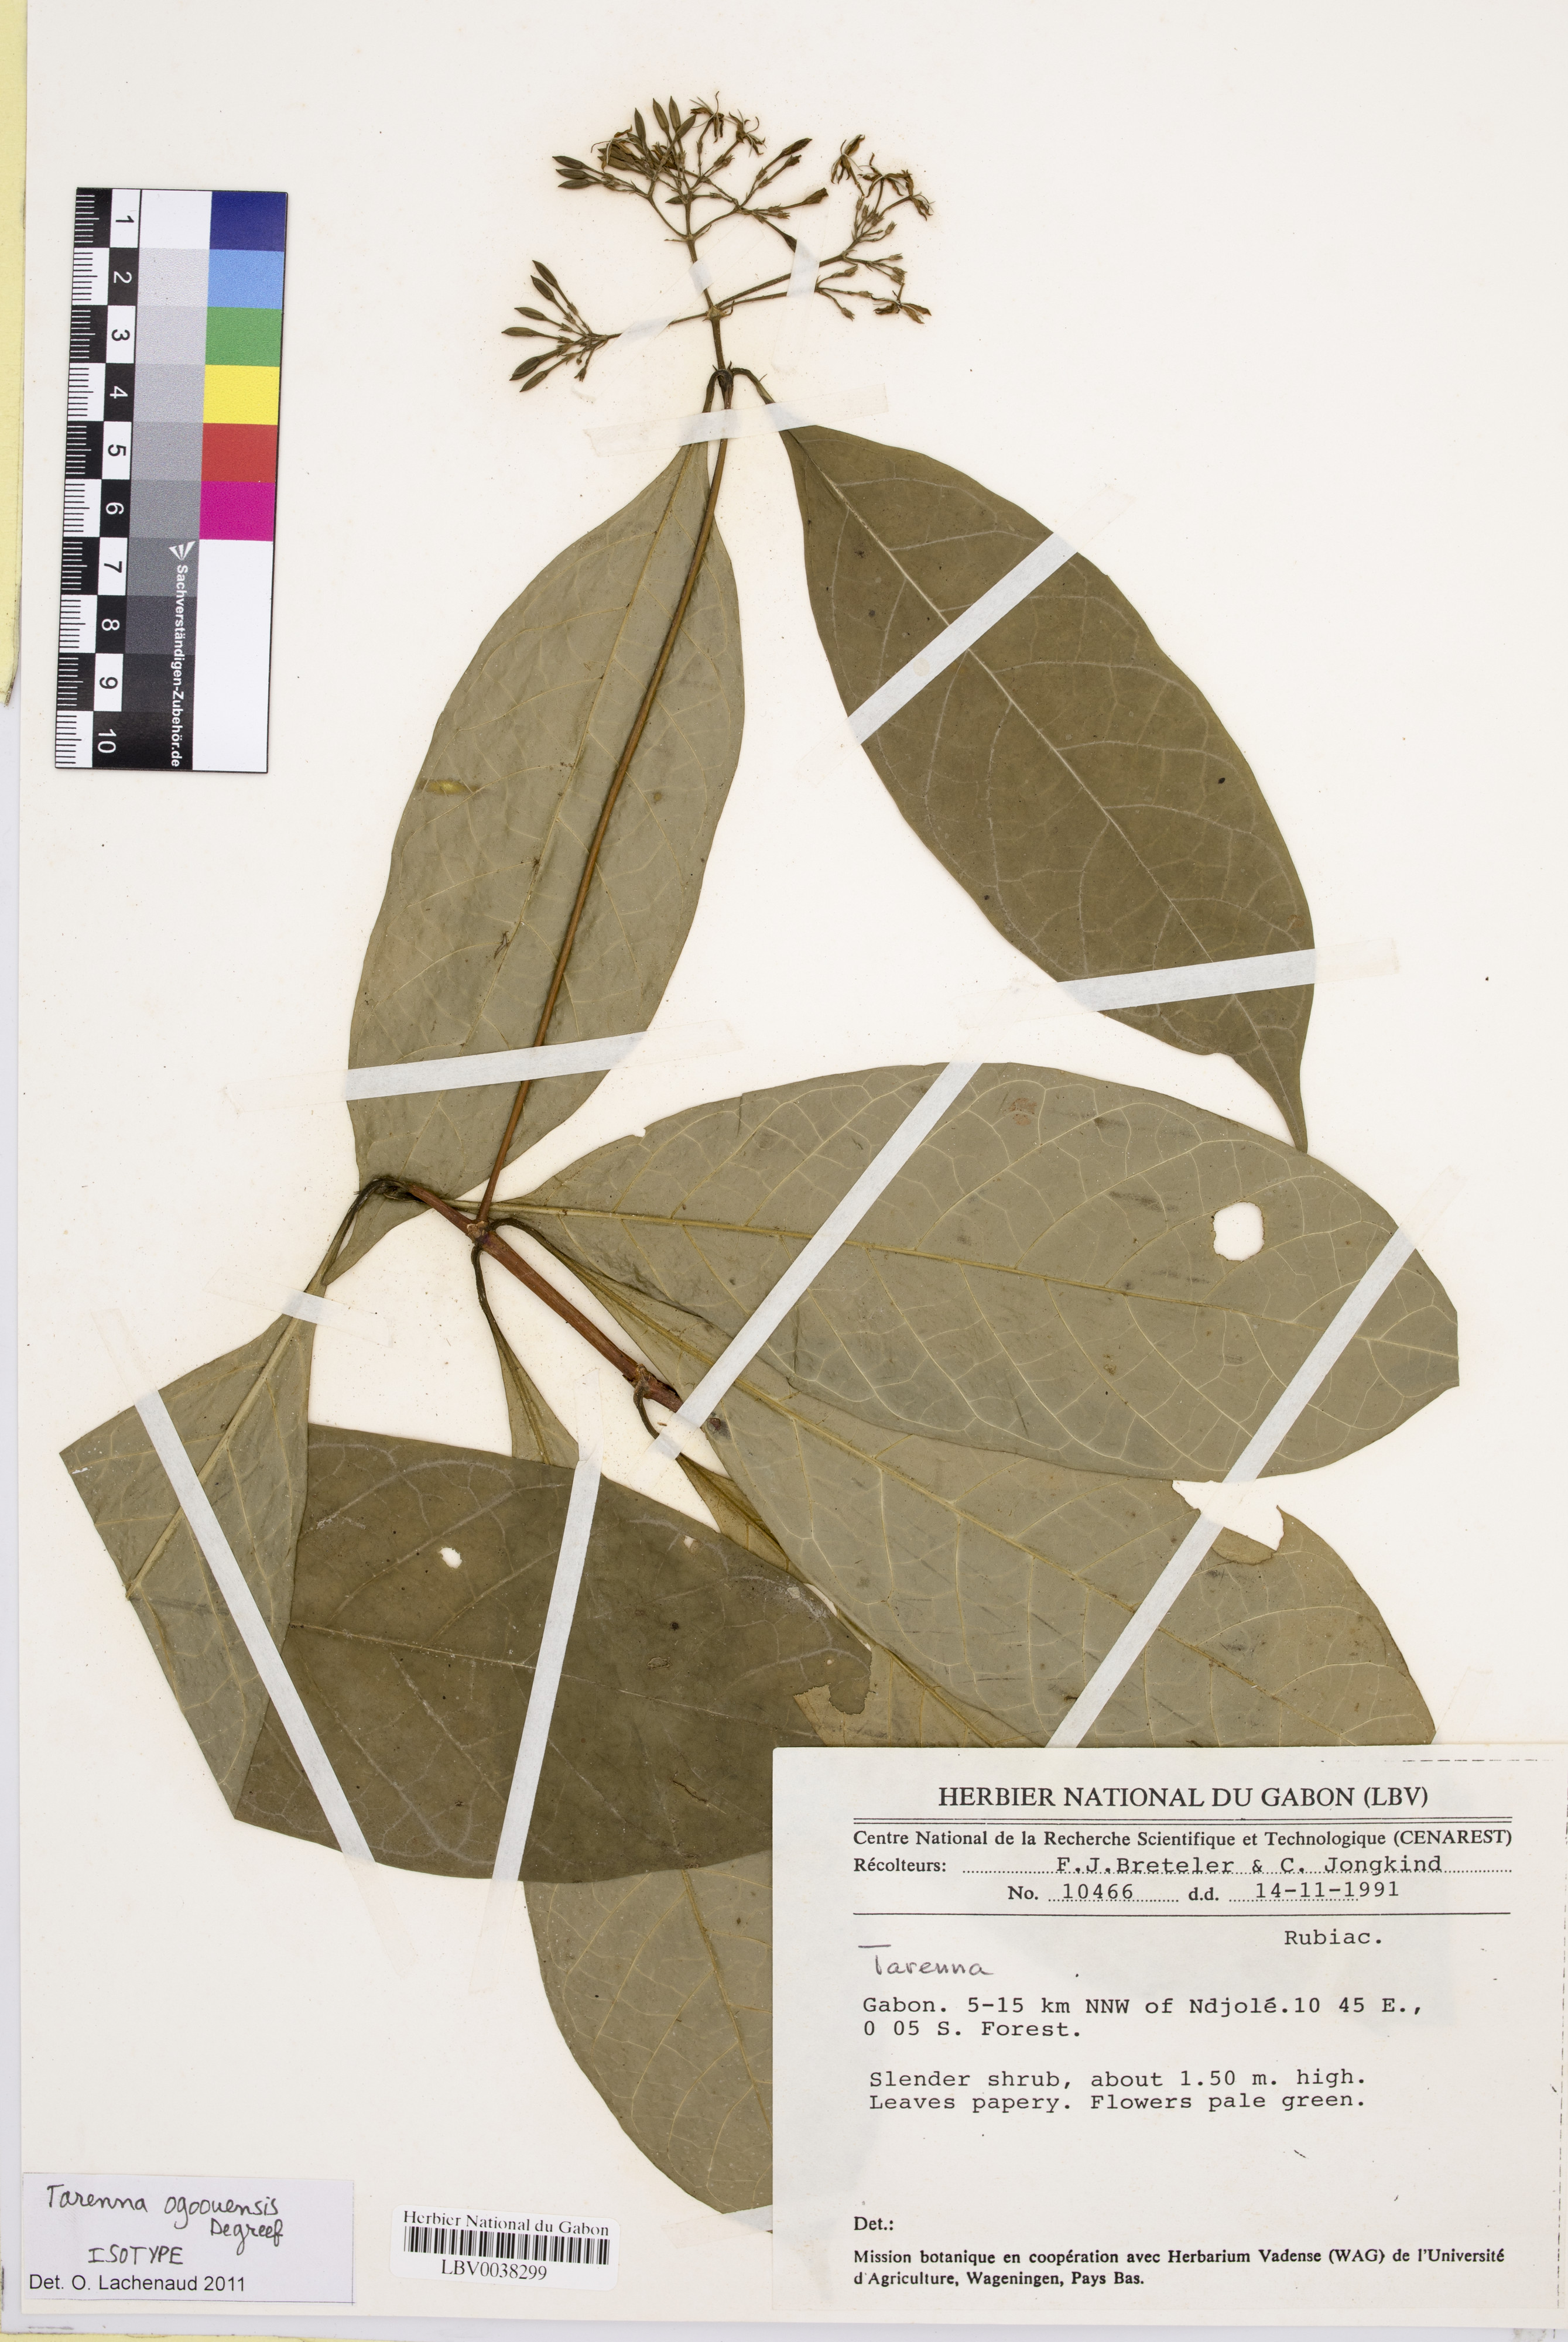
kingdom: Plantae
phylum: Tracheophyta
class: Magnoliopsida
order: Gentianales
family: Rubiaceae
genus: Tarenna
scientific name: Tarenna ogoouensis
